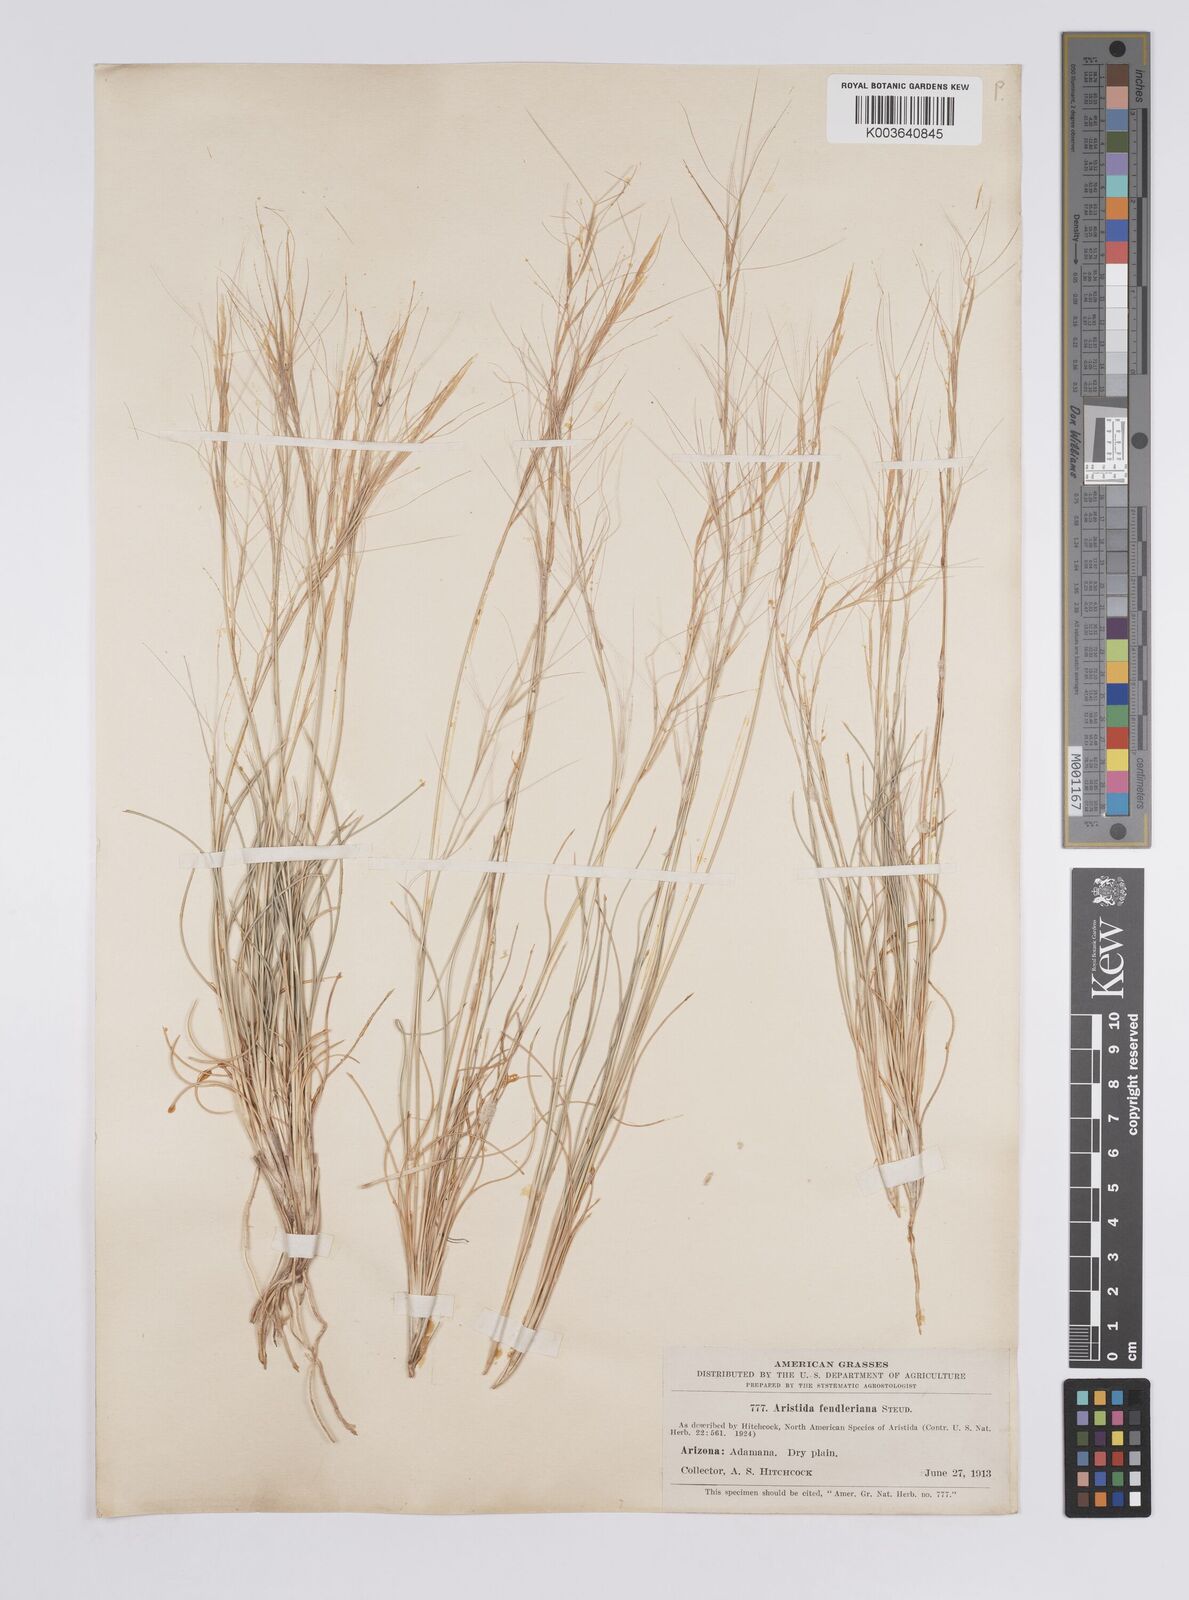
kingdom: Plantae
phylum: Tracheophyta
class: Liliopsida
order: Poales
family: Poaceae
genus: Aristida
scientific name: Aristida purpurea
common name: Purple threeawn
